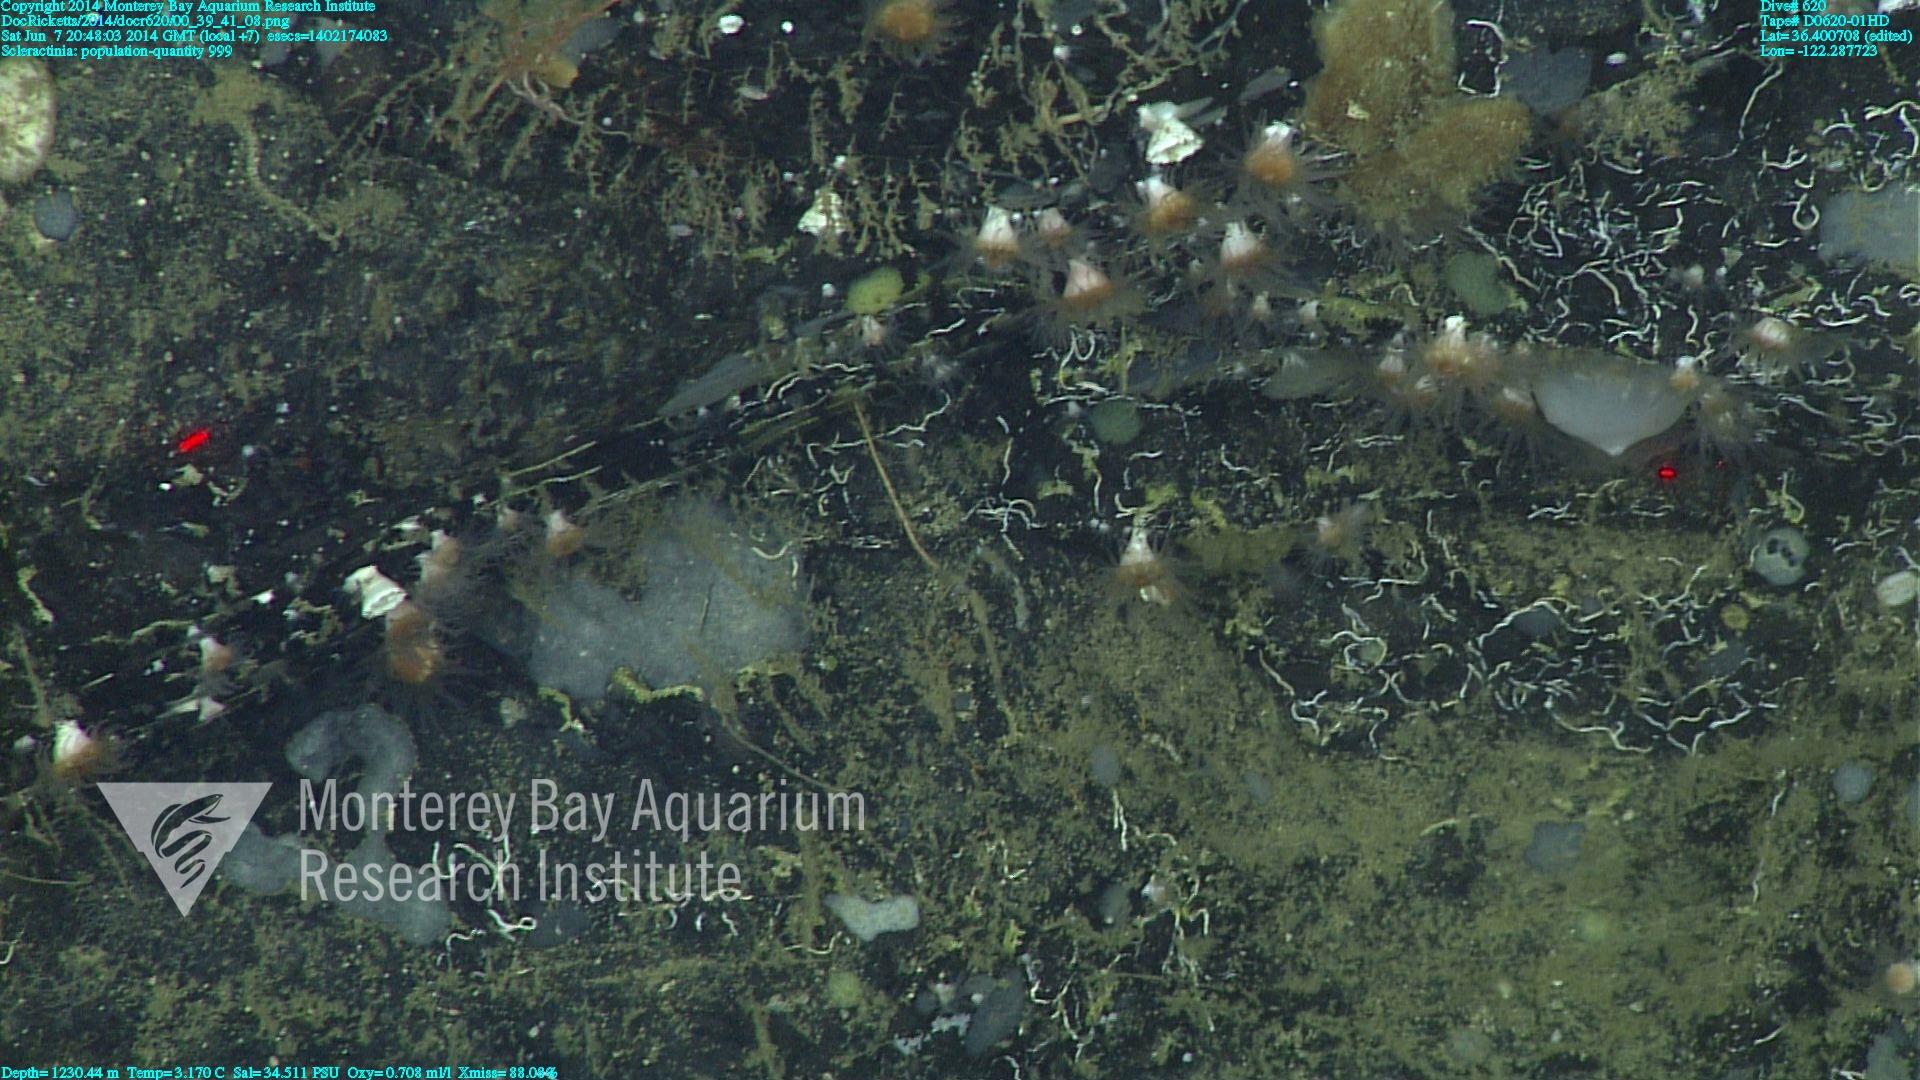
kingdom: Animalia
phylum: Cnidaria
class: Anthozoa
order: Scleractinia
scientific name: Scleractinia
